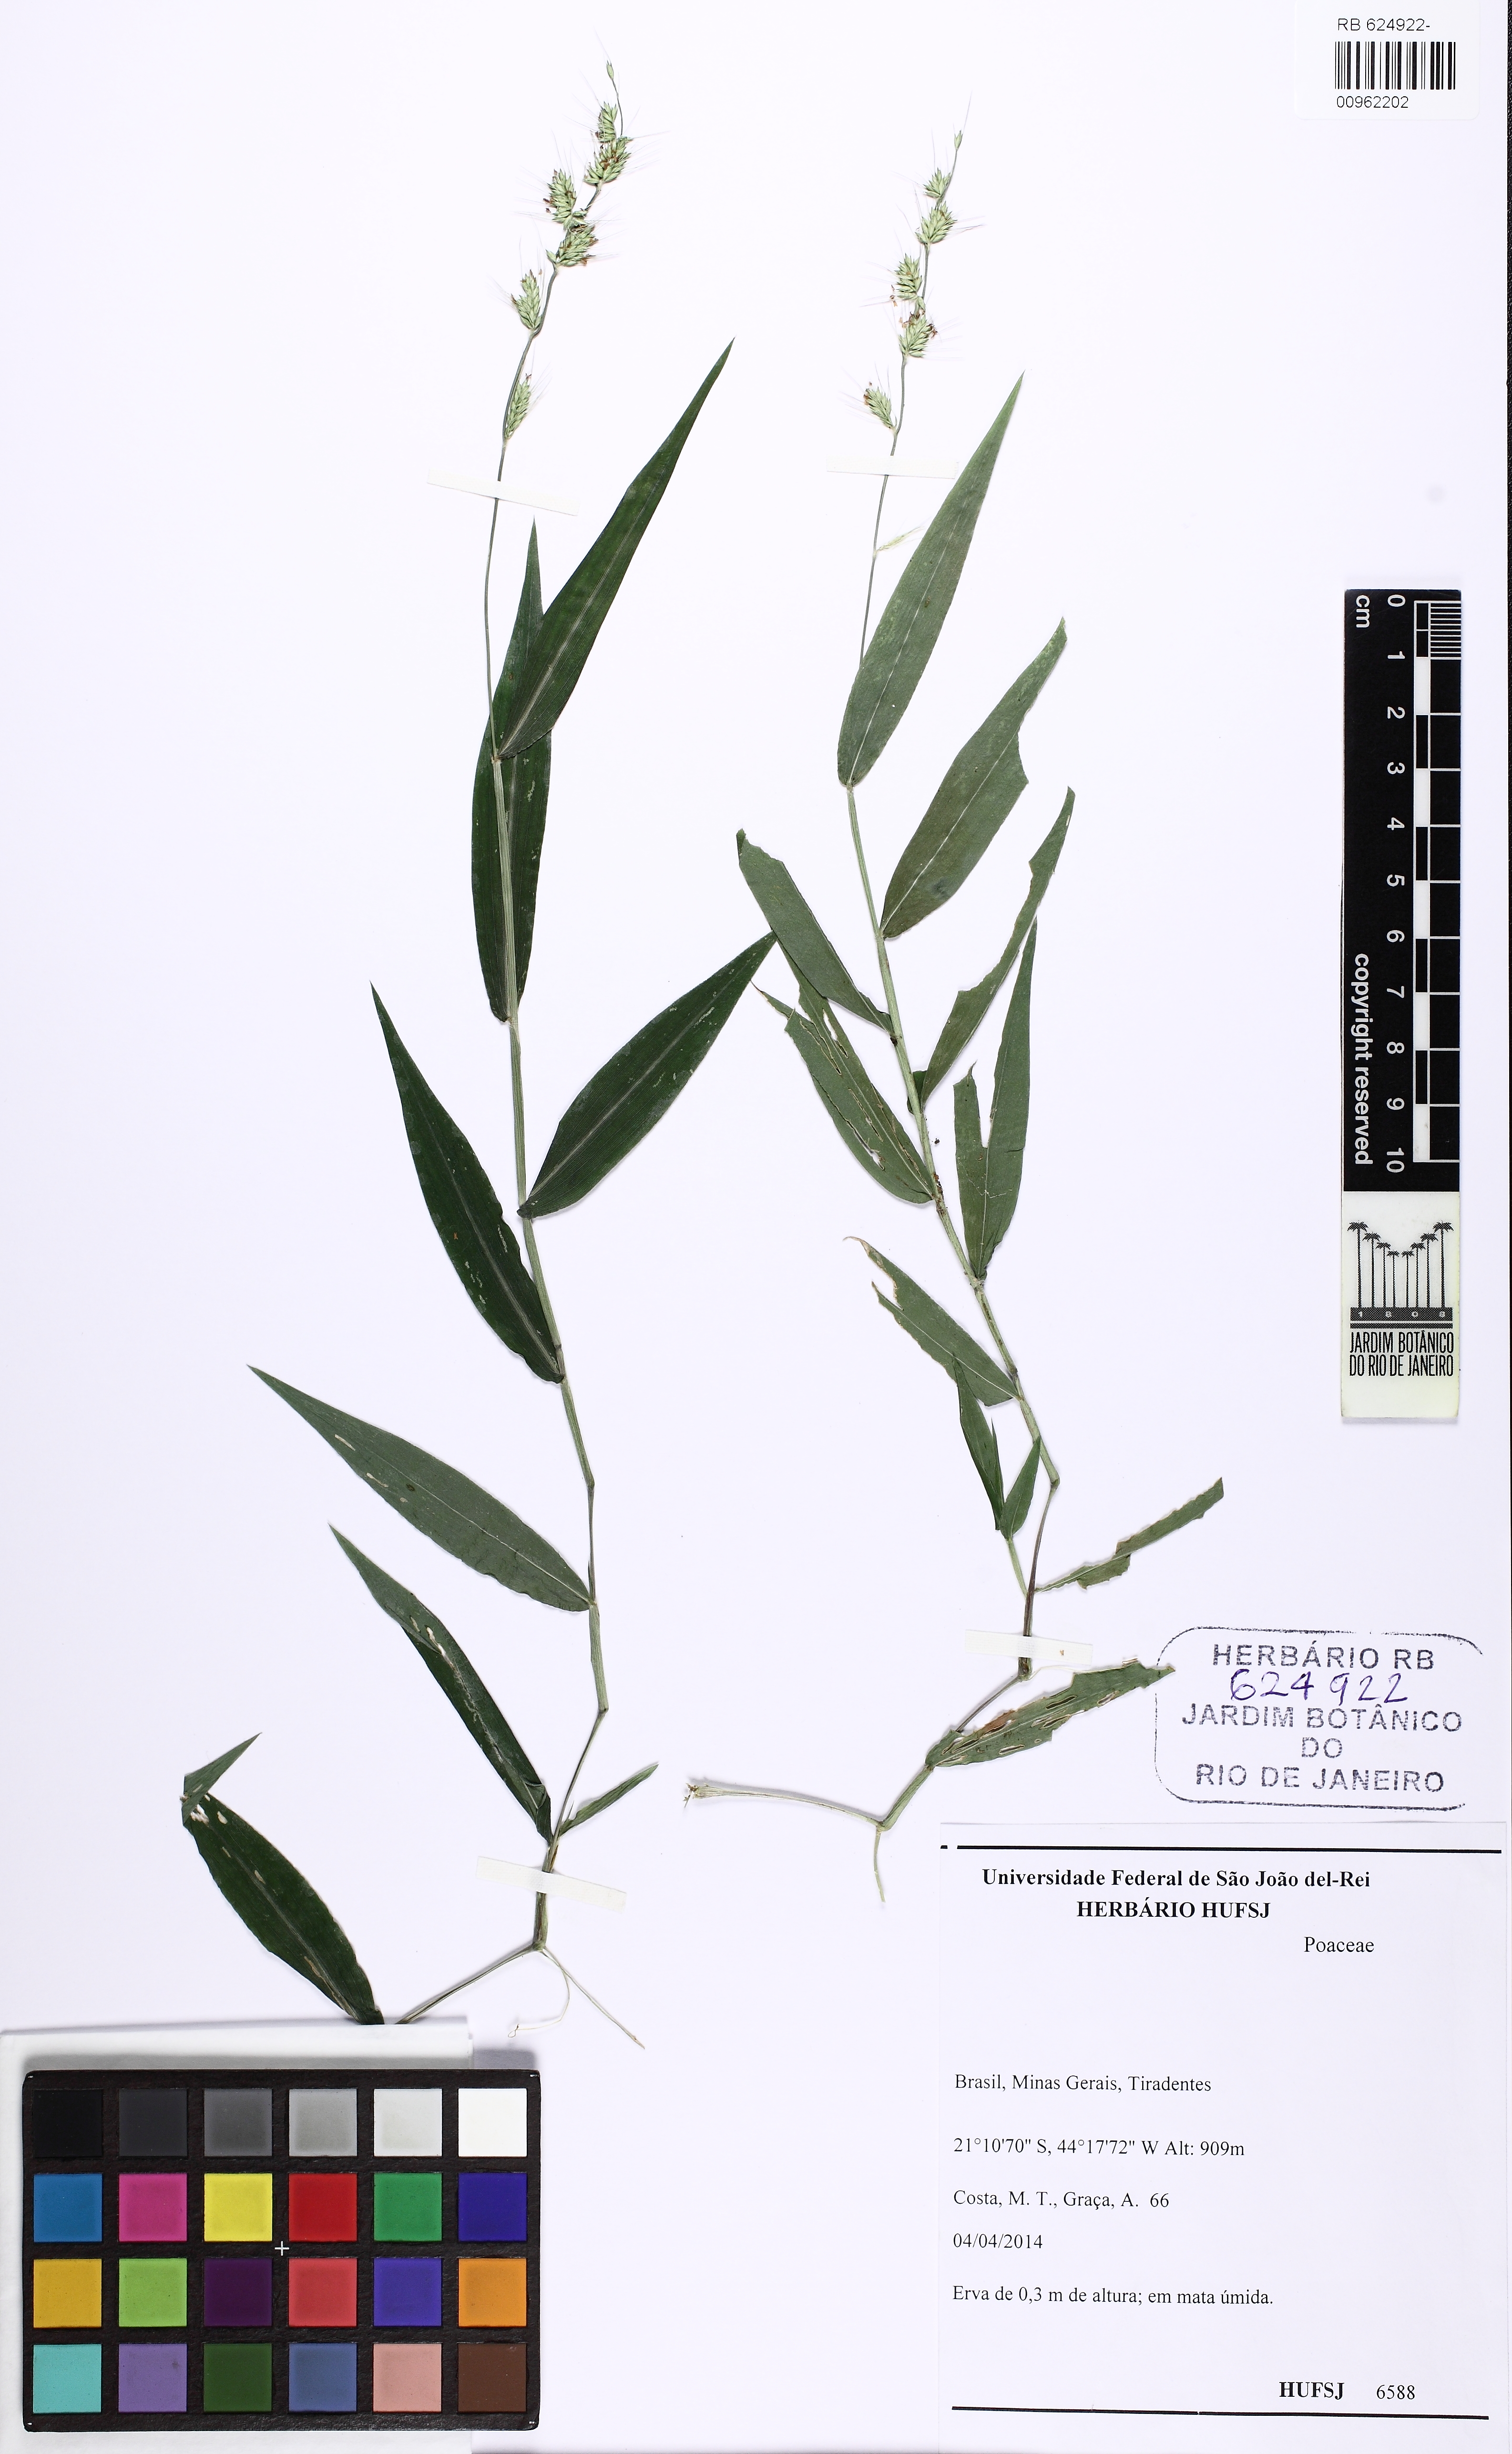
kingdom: Plantae
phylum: Tracheophyta
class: Liliopsida
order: Poales
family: Poaceae
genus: Oplismenus
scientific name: Oplismenus hirtellus
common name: Basketgrass
